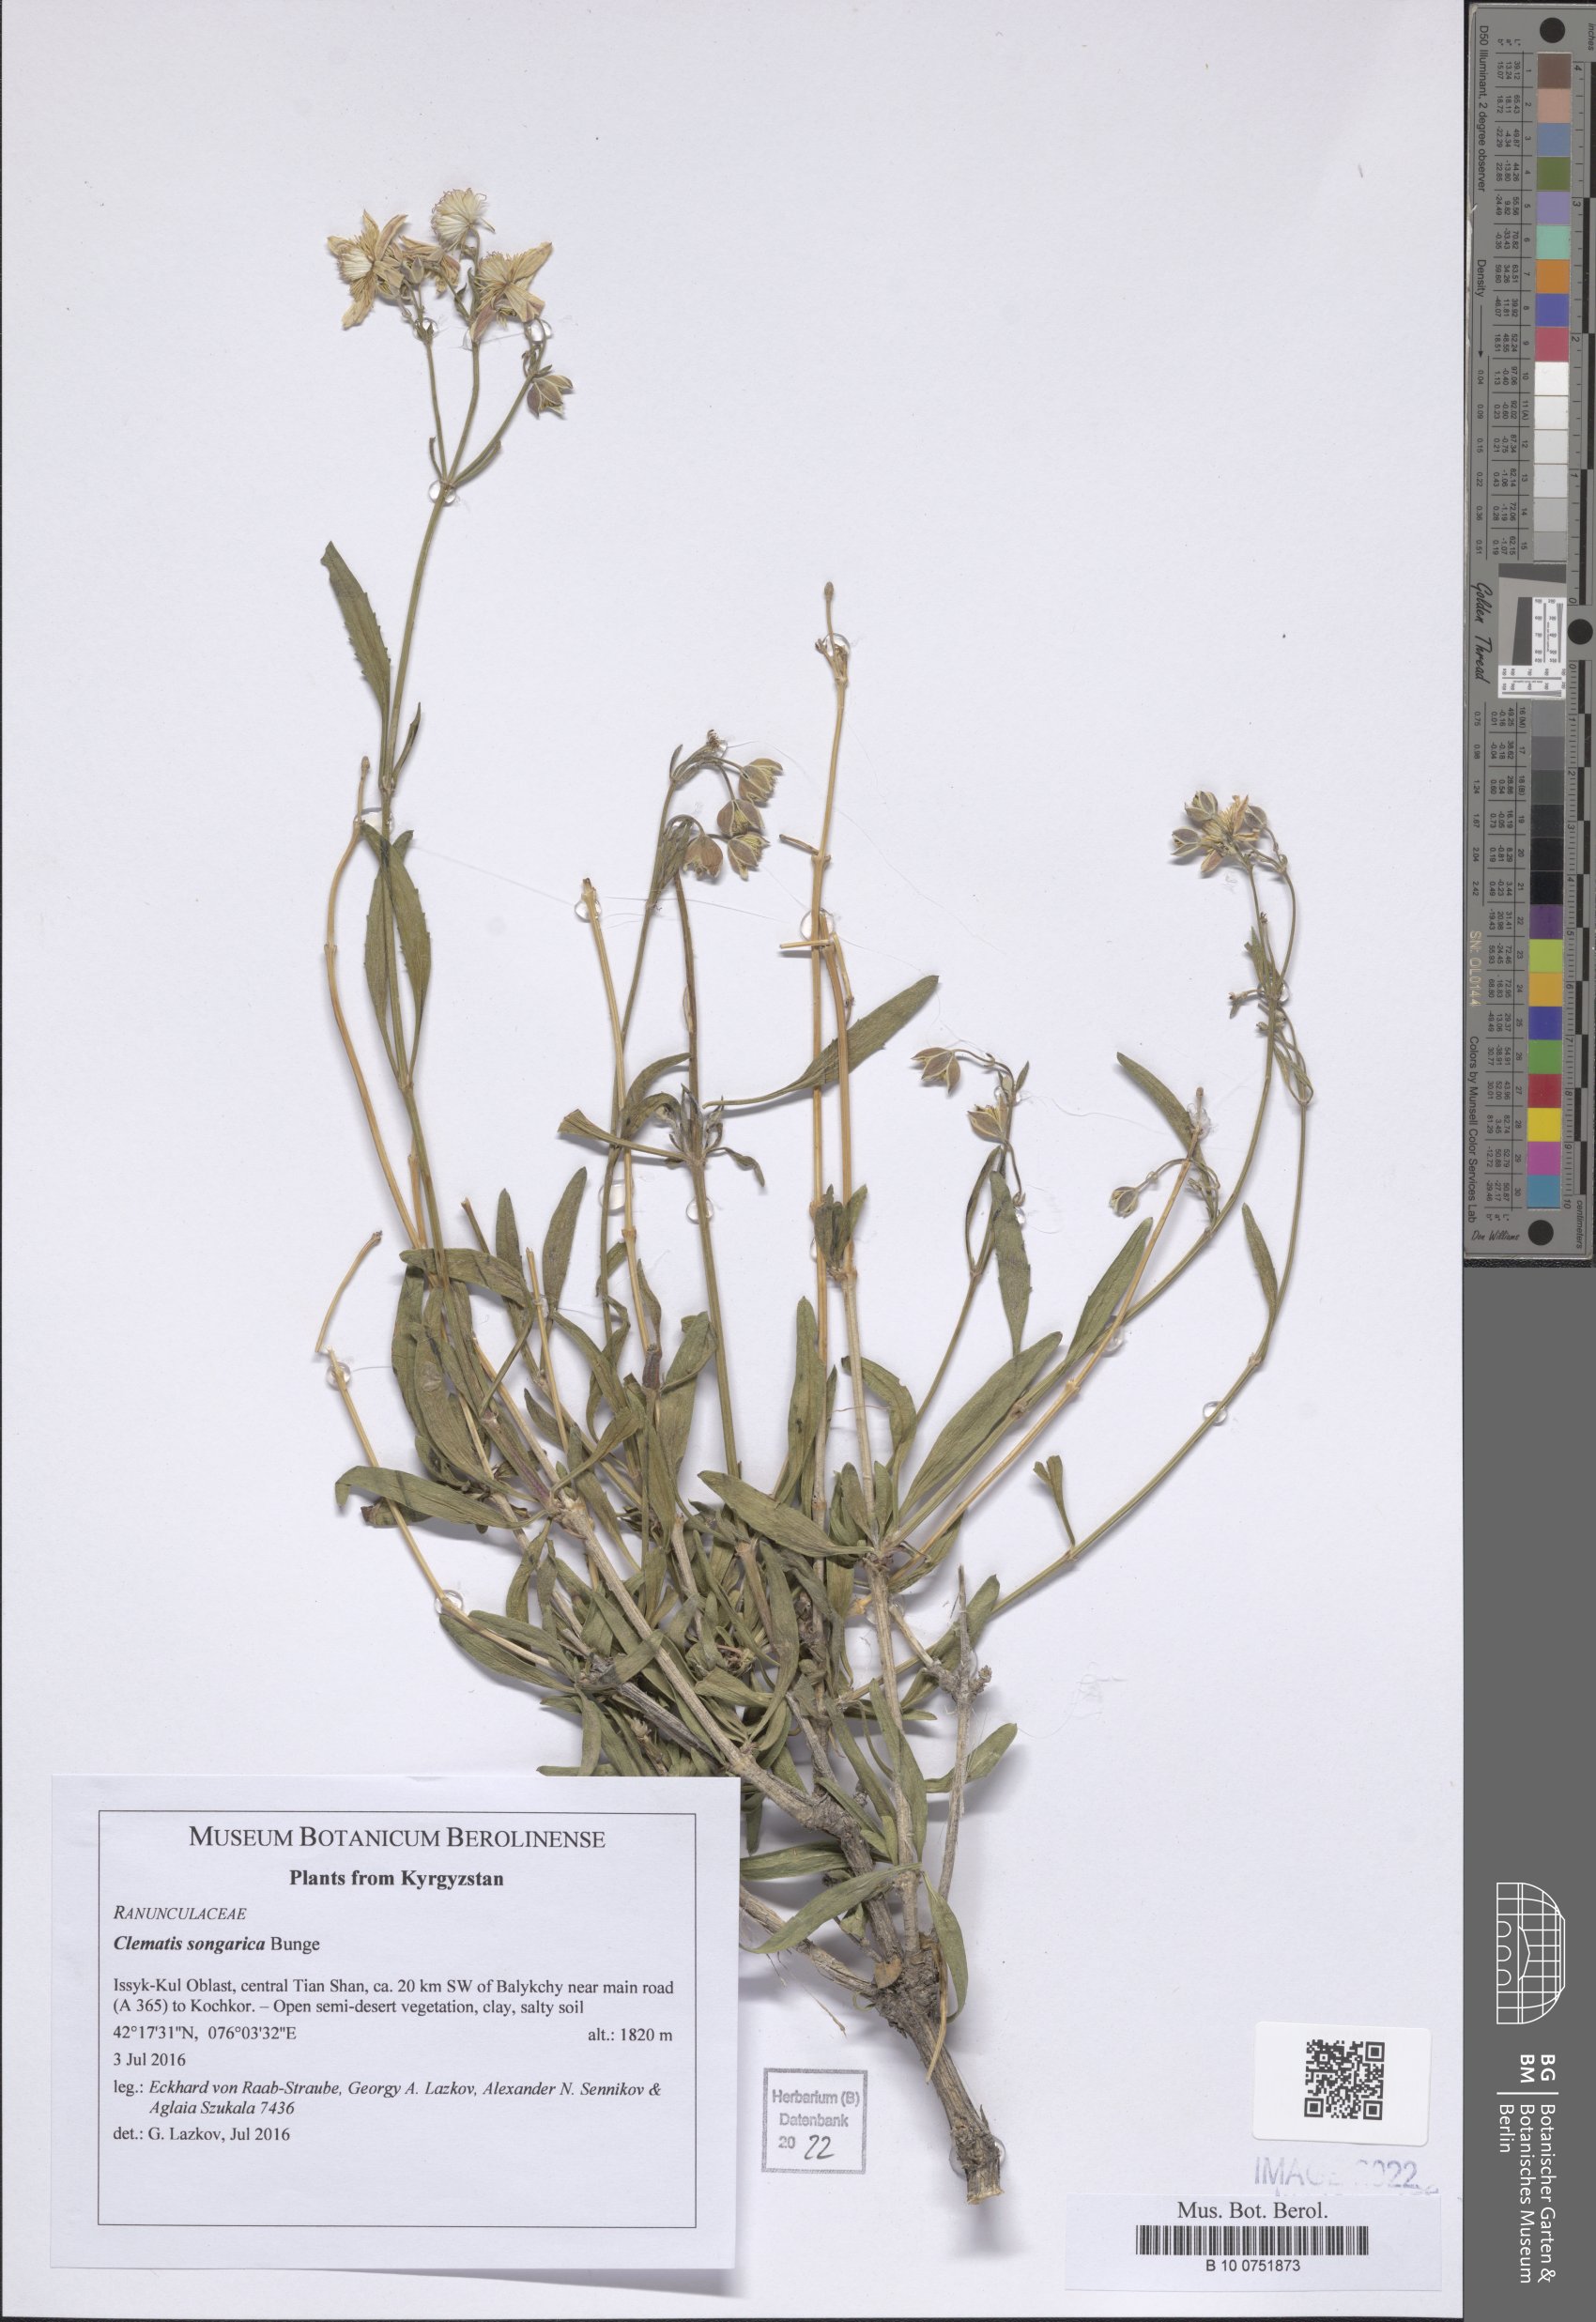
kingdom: Plantae
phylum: Tracheophyta
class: Magnoliopsida
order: Ranunculales
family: Ranunculaceae
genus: Clematis
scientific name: Clematis songorica
